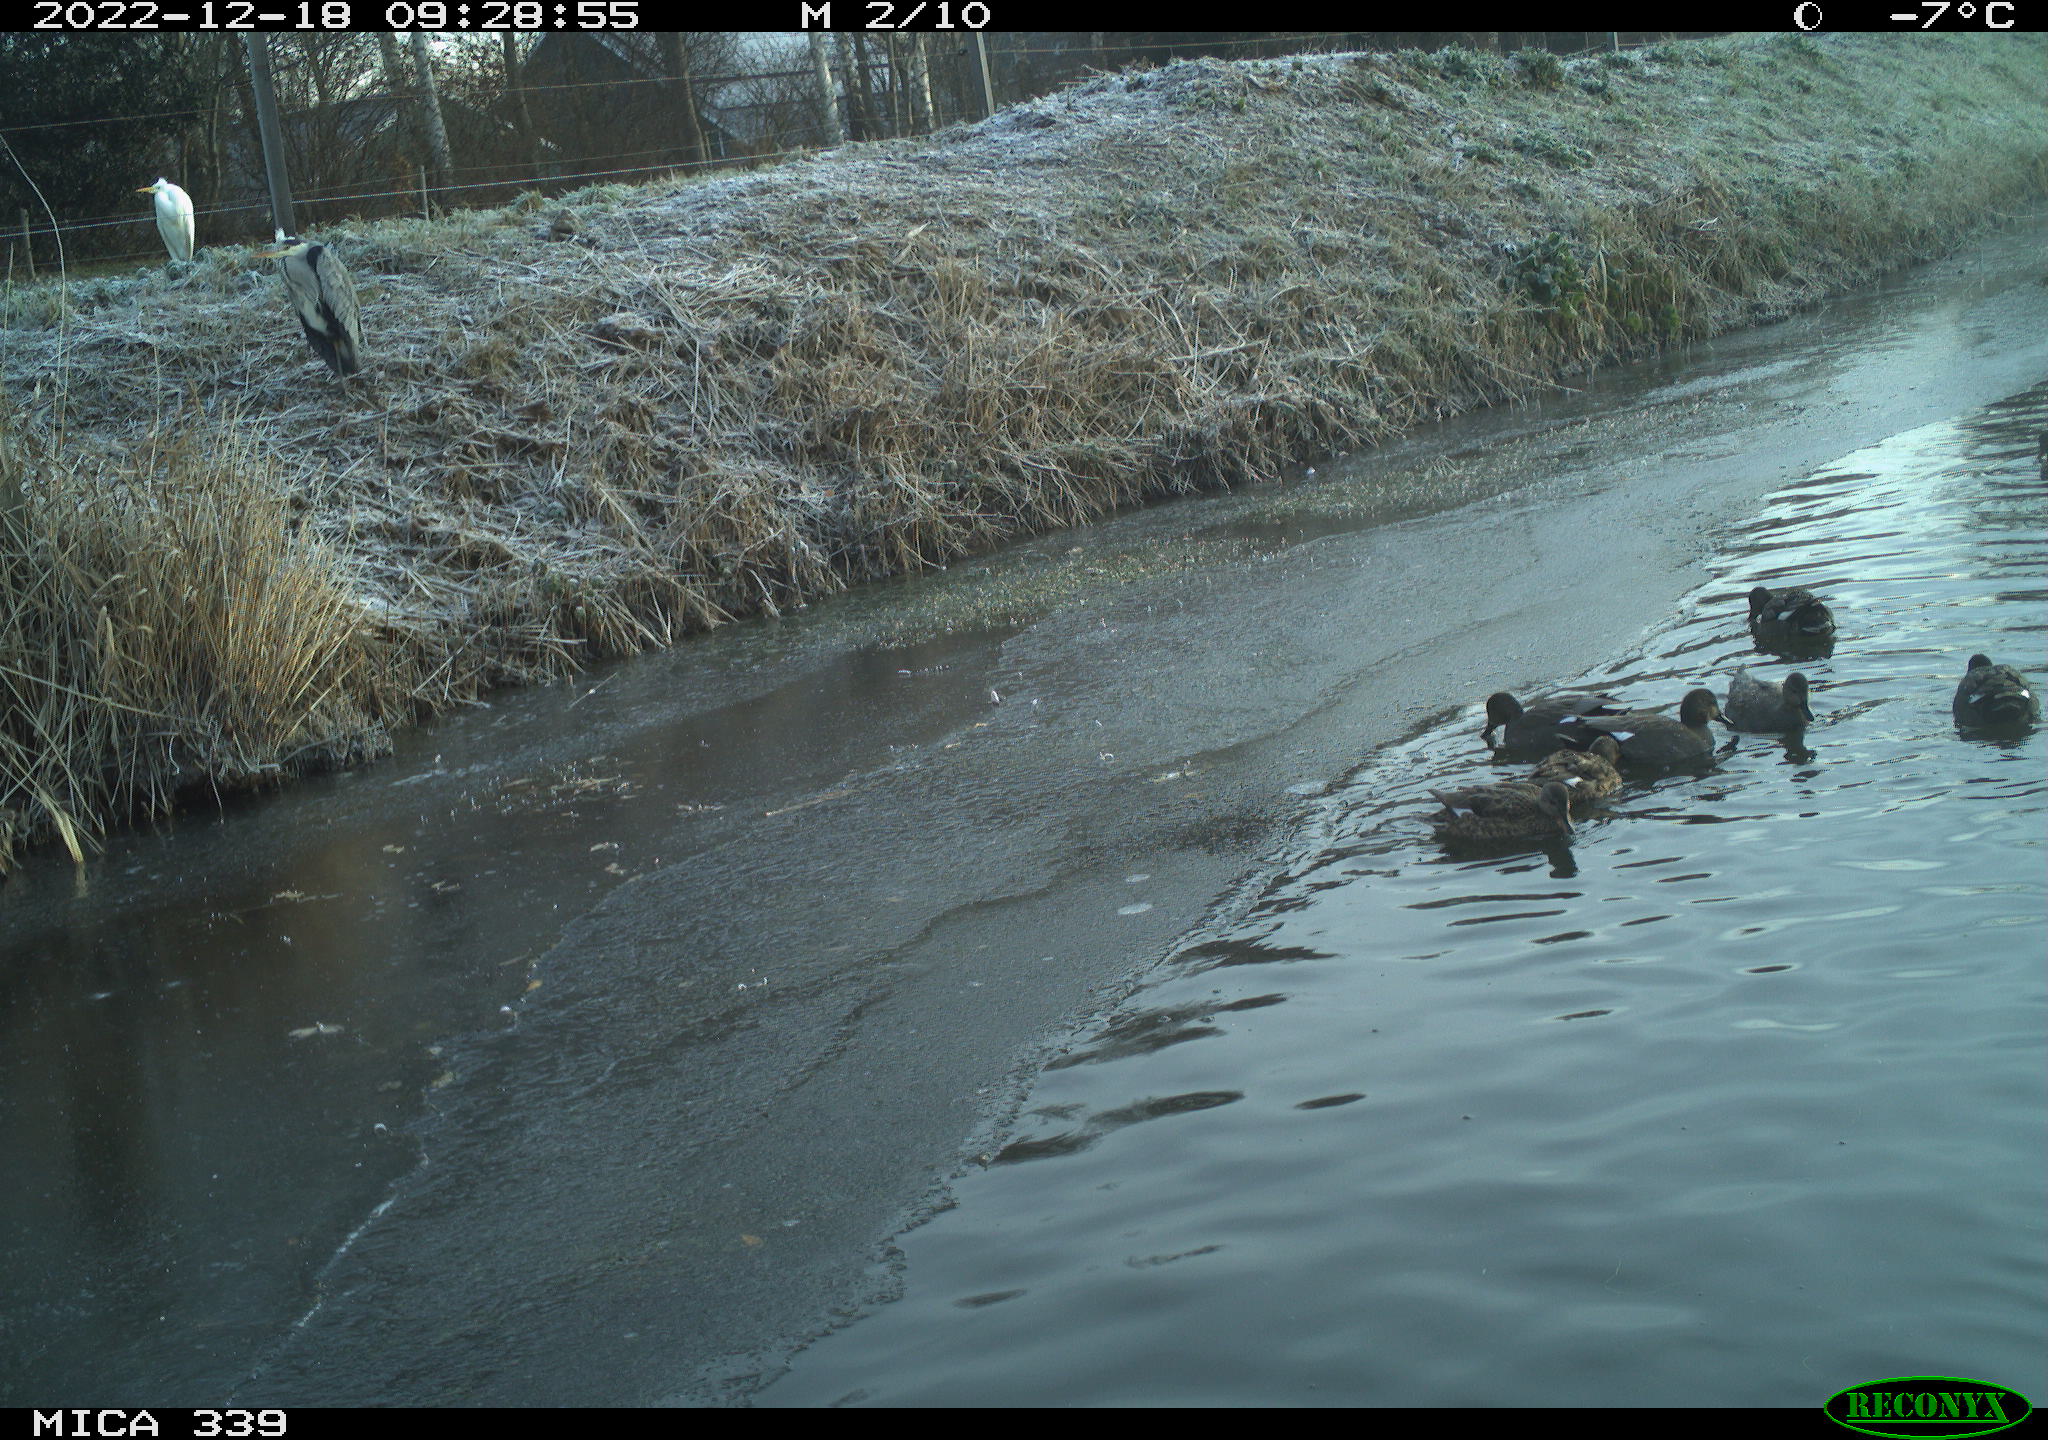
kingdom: Animalia
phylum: Chordata
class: Aves
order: Anseriformes
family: Anatidae
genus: Anas
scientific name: Anas
